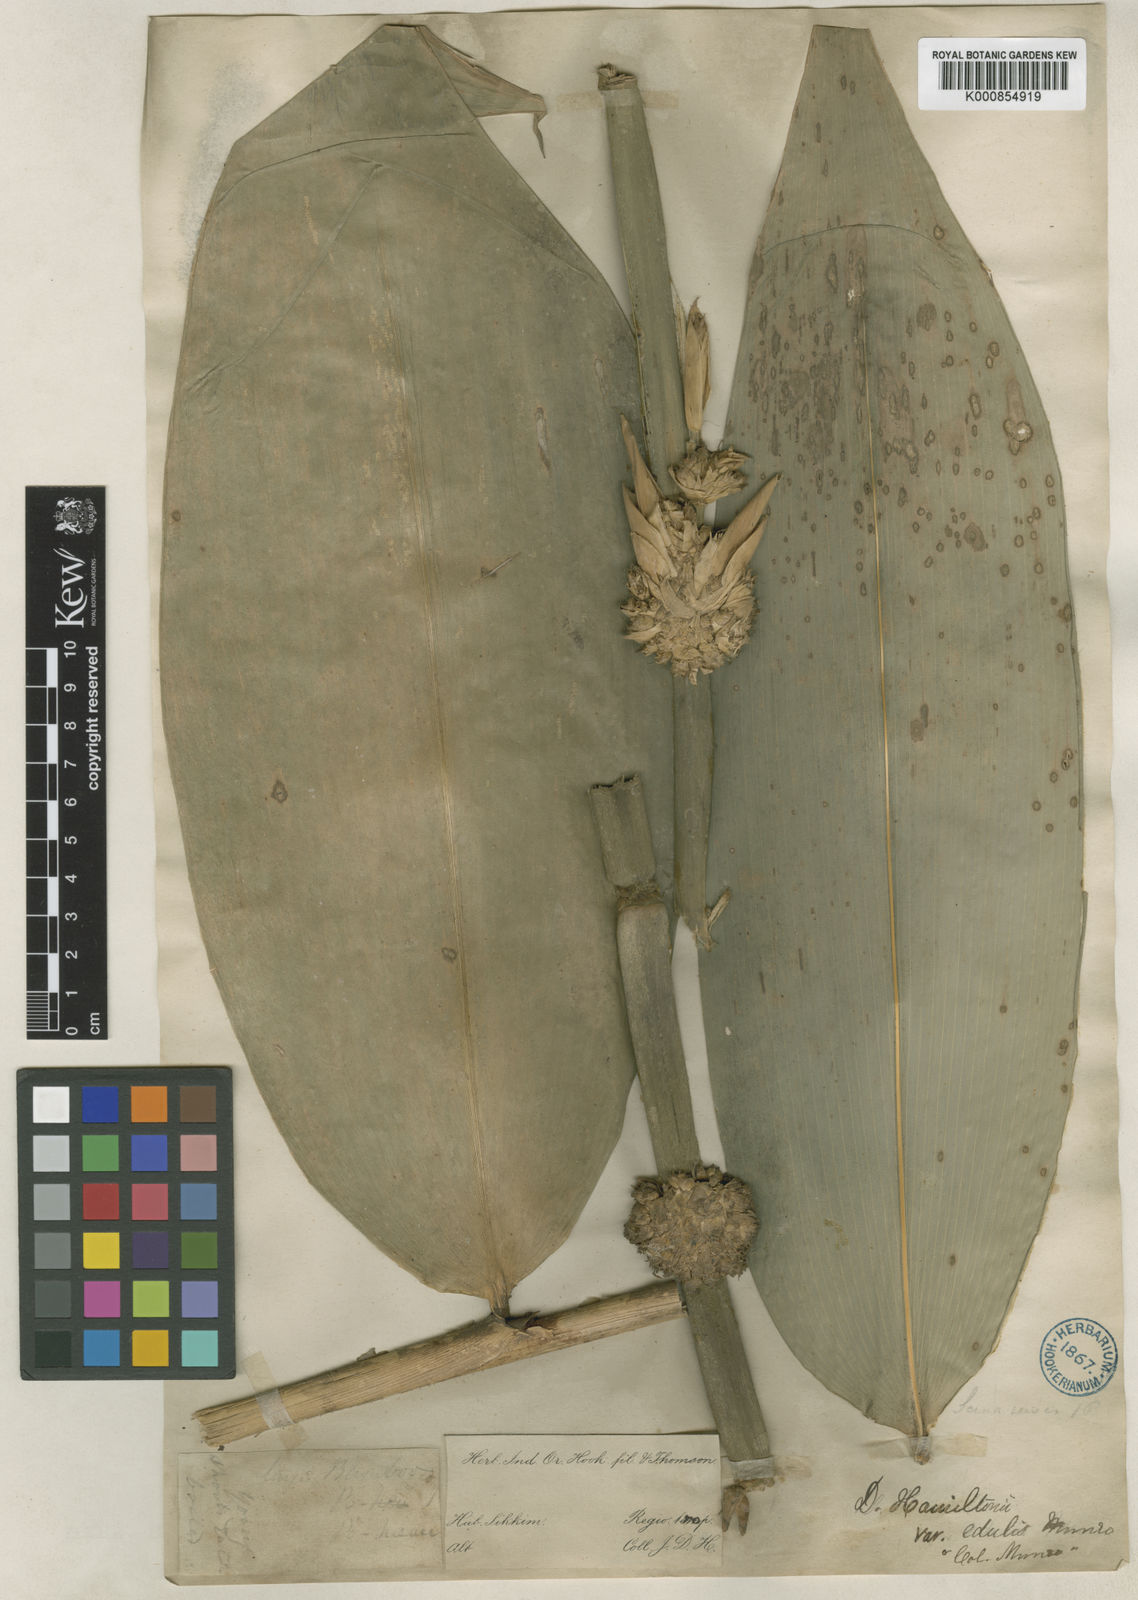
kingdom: Plantae
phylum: Tracheophyta
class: Liliopsida
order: Poales
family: Poaceae
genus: Dendrocalamus
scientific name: Dendrocalamus hamiltonii
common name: Tama bamboo
